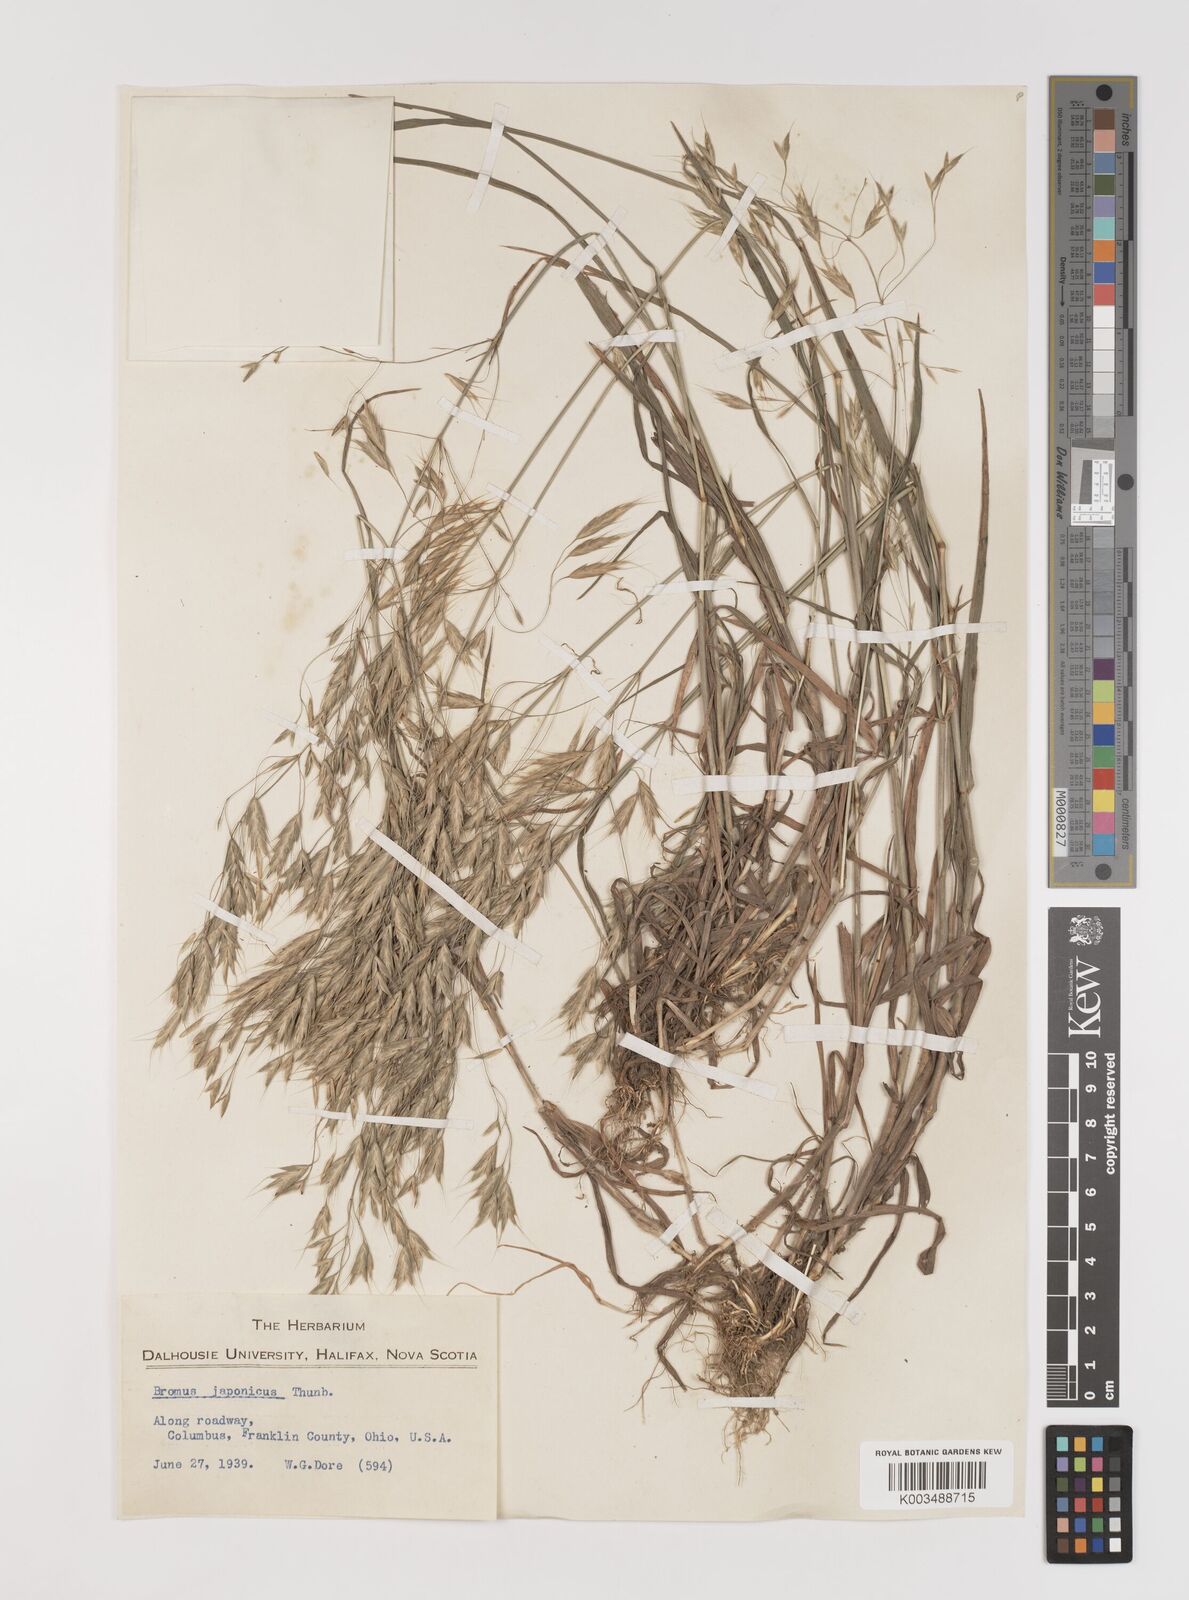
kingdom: Plantae
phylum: Tracheophyta
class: Liliopsida
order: Poales
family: Poaceae
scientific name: Poaceae
